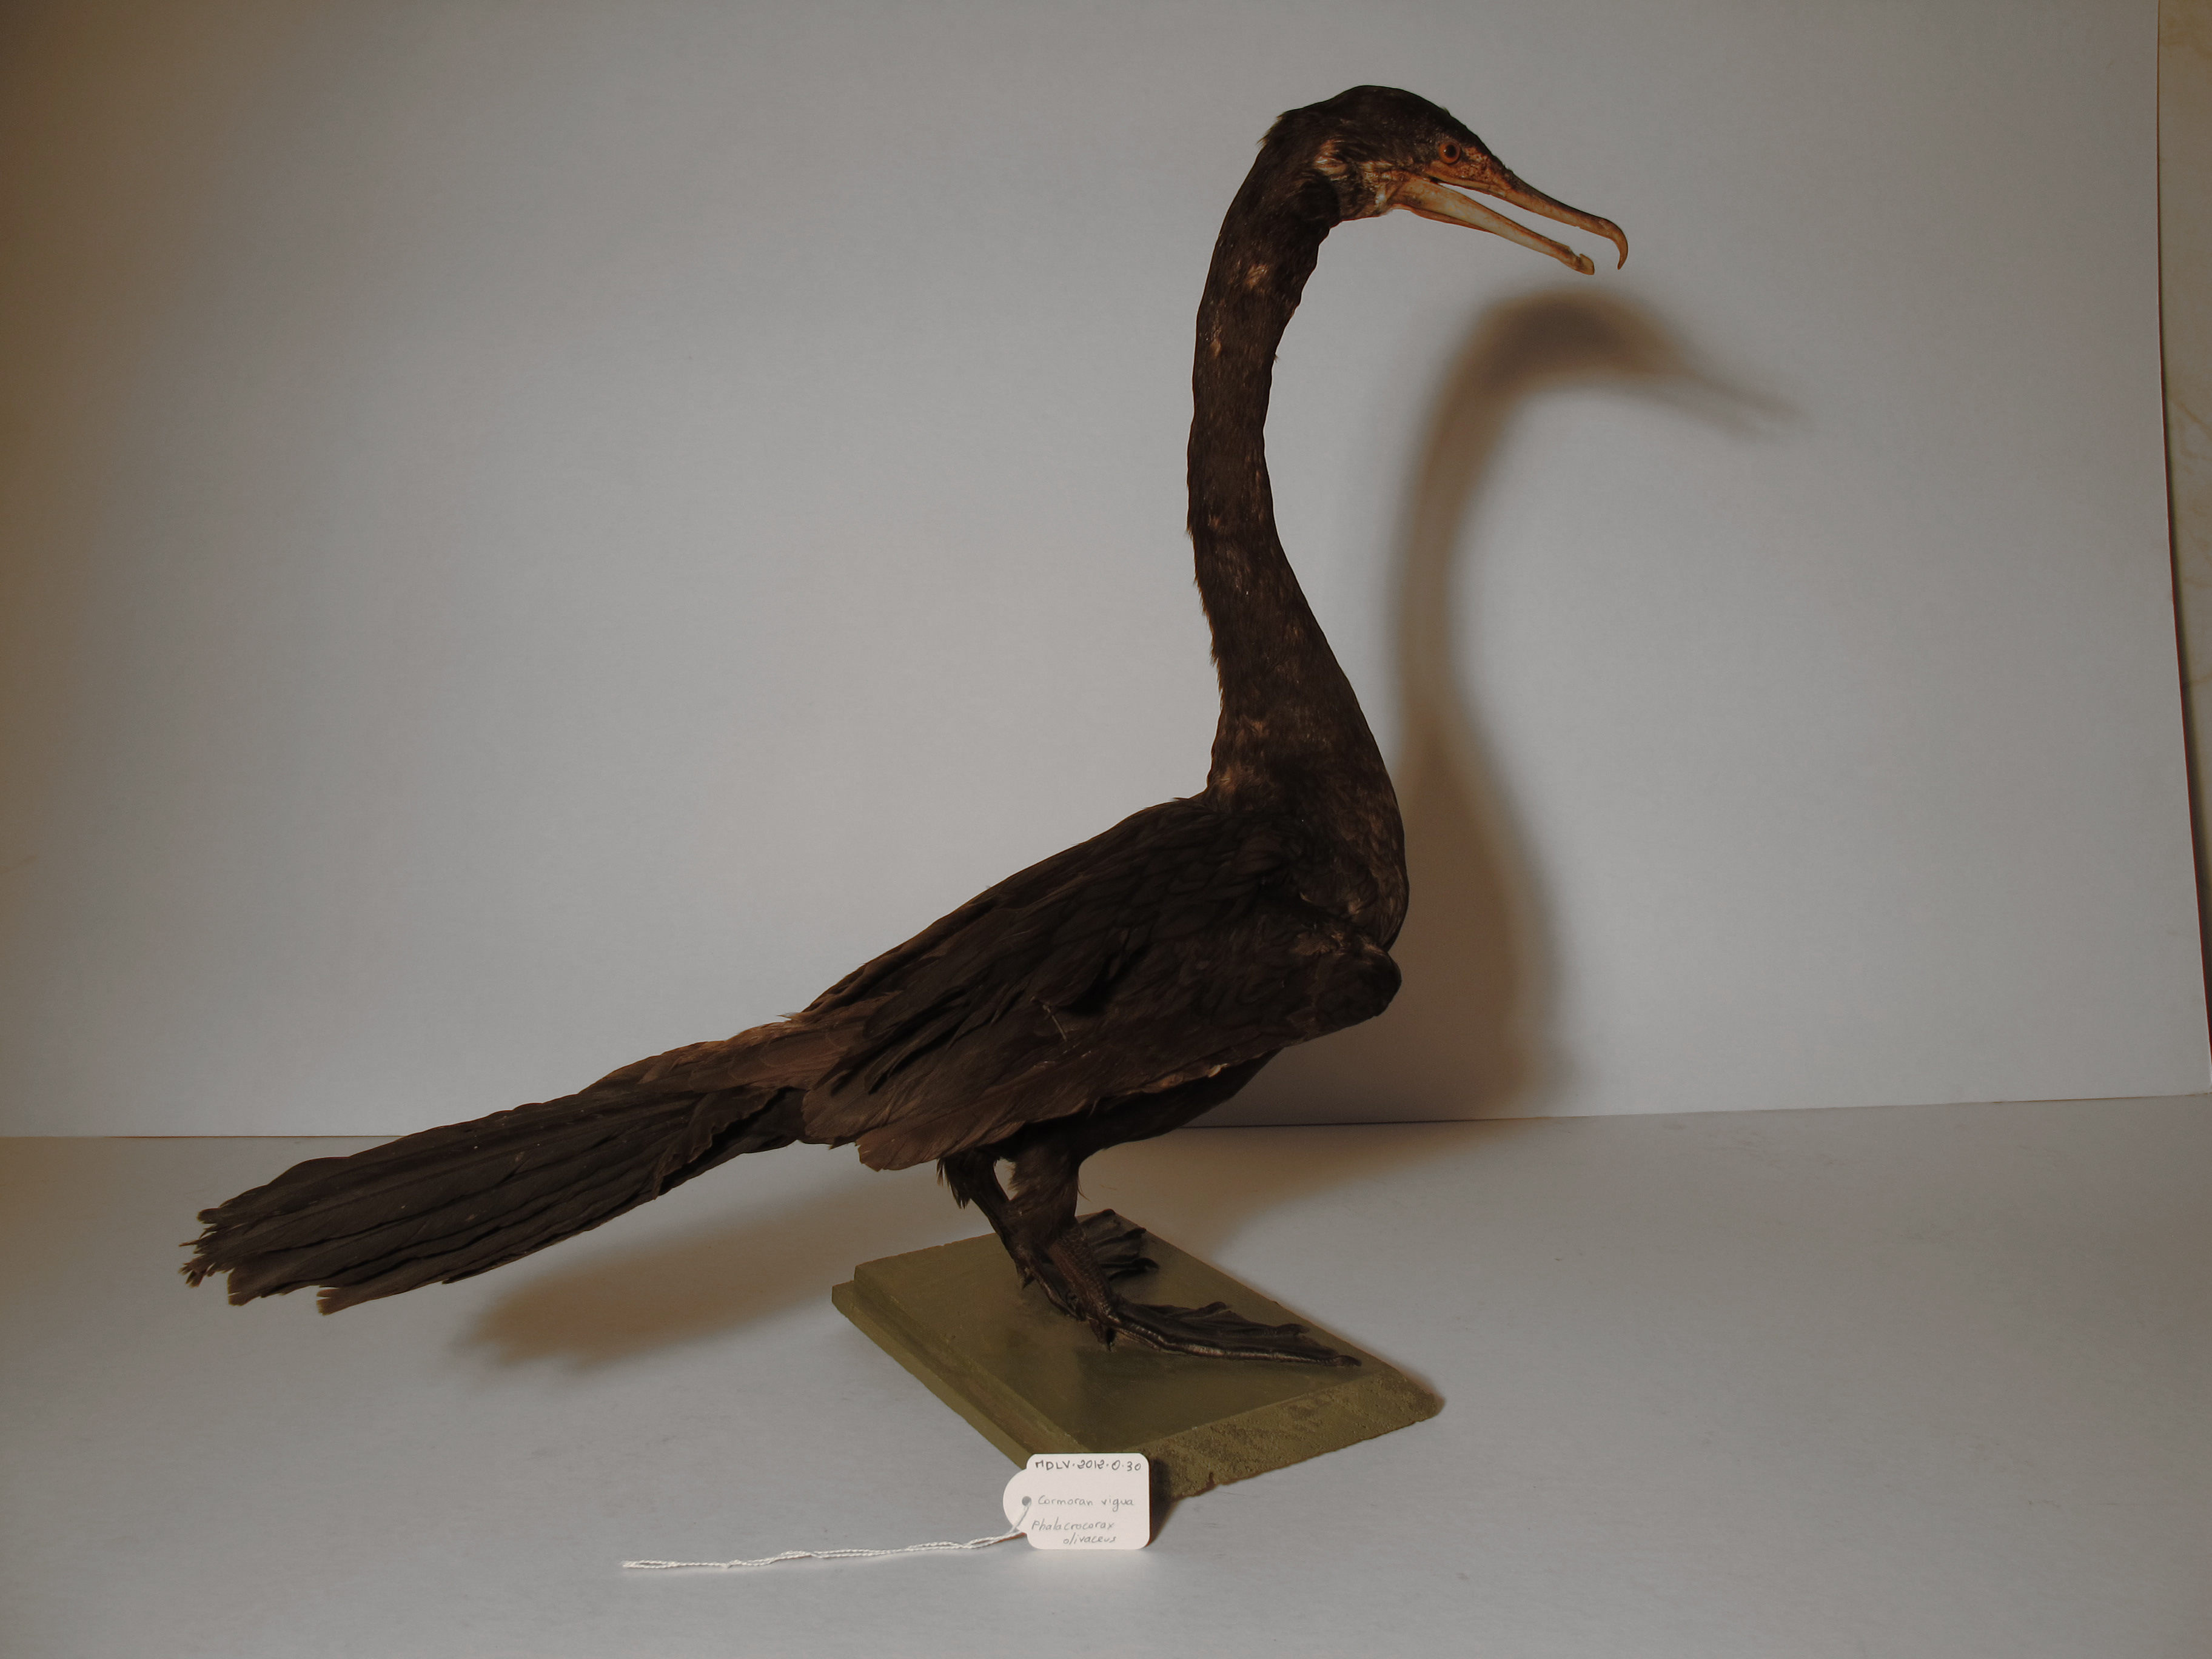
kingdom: Animalia
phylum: Chordata
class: Aves
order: Suliformes
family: Phalacrocoracidae
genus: Phalacrocorax
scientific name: Phalacrocorax brasilianus
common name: Neotropic Cormorant
